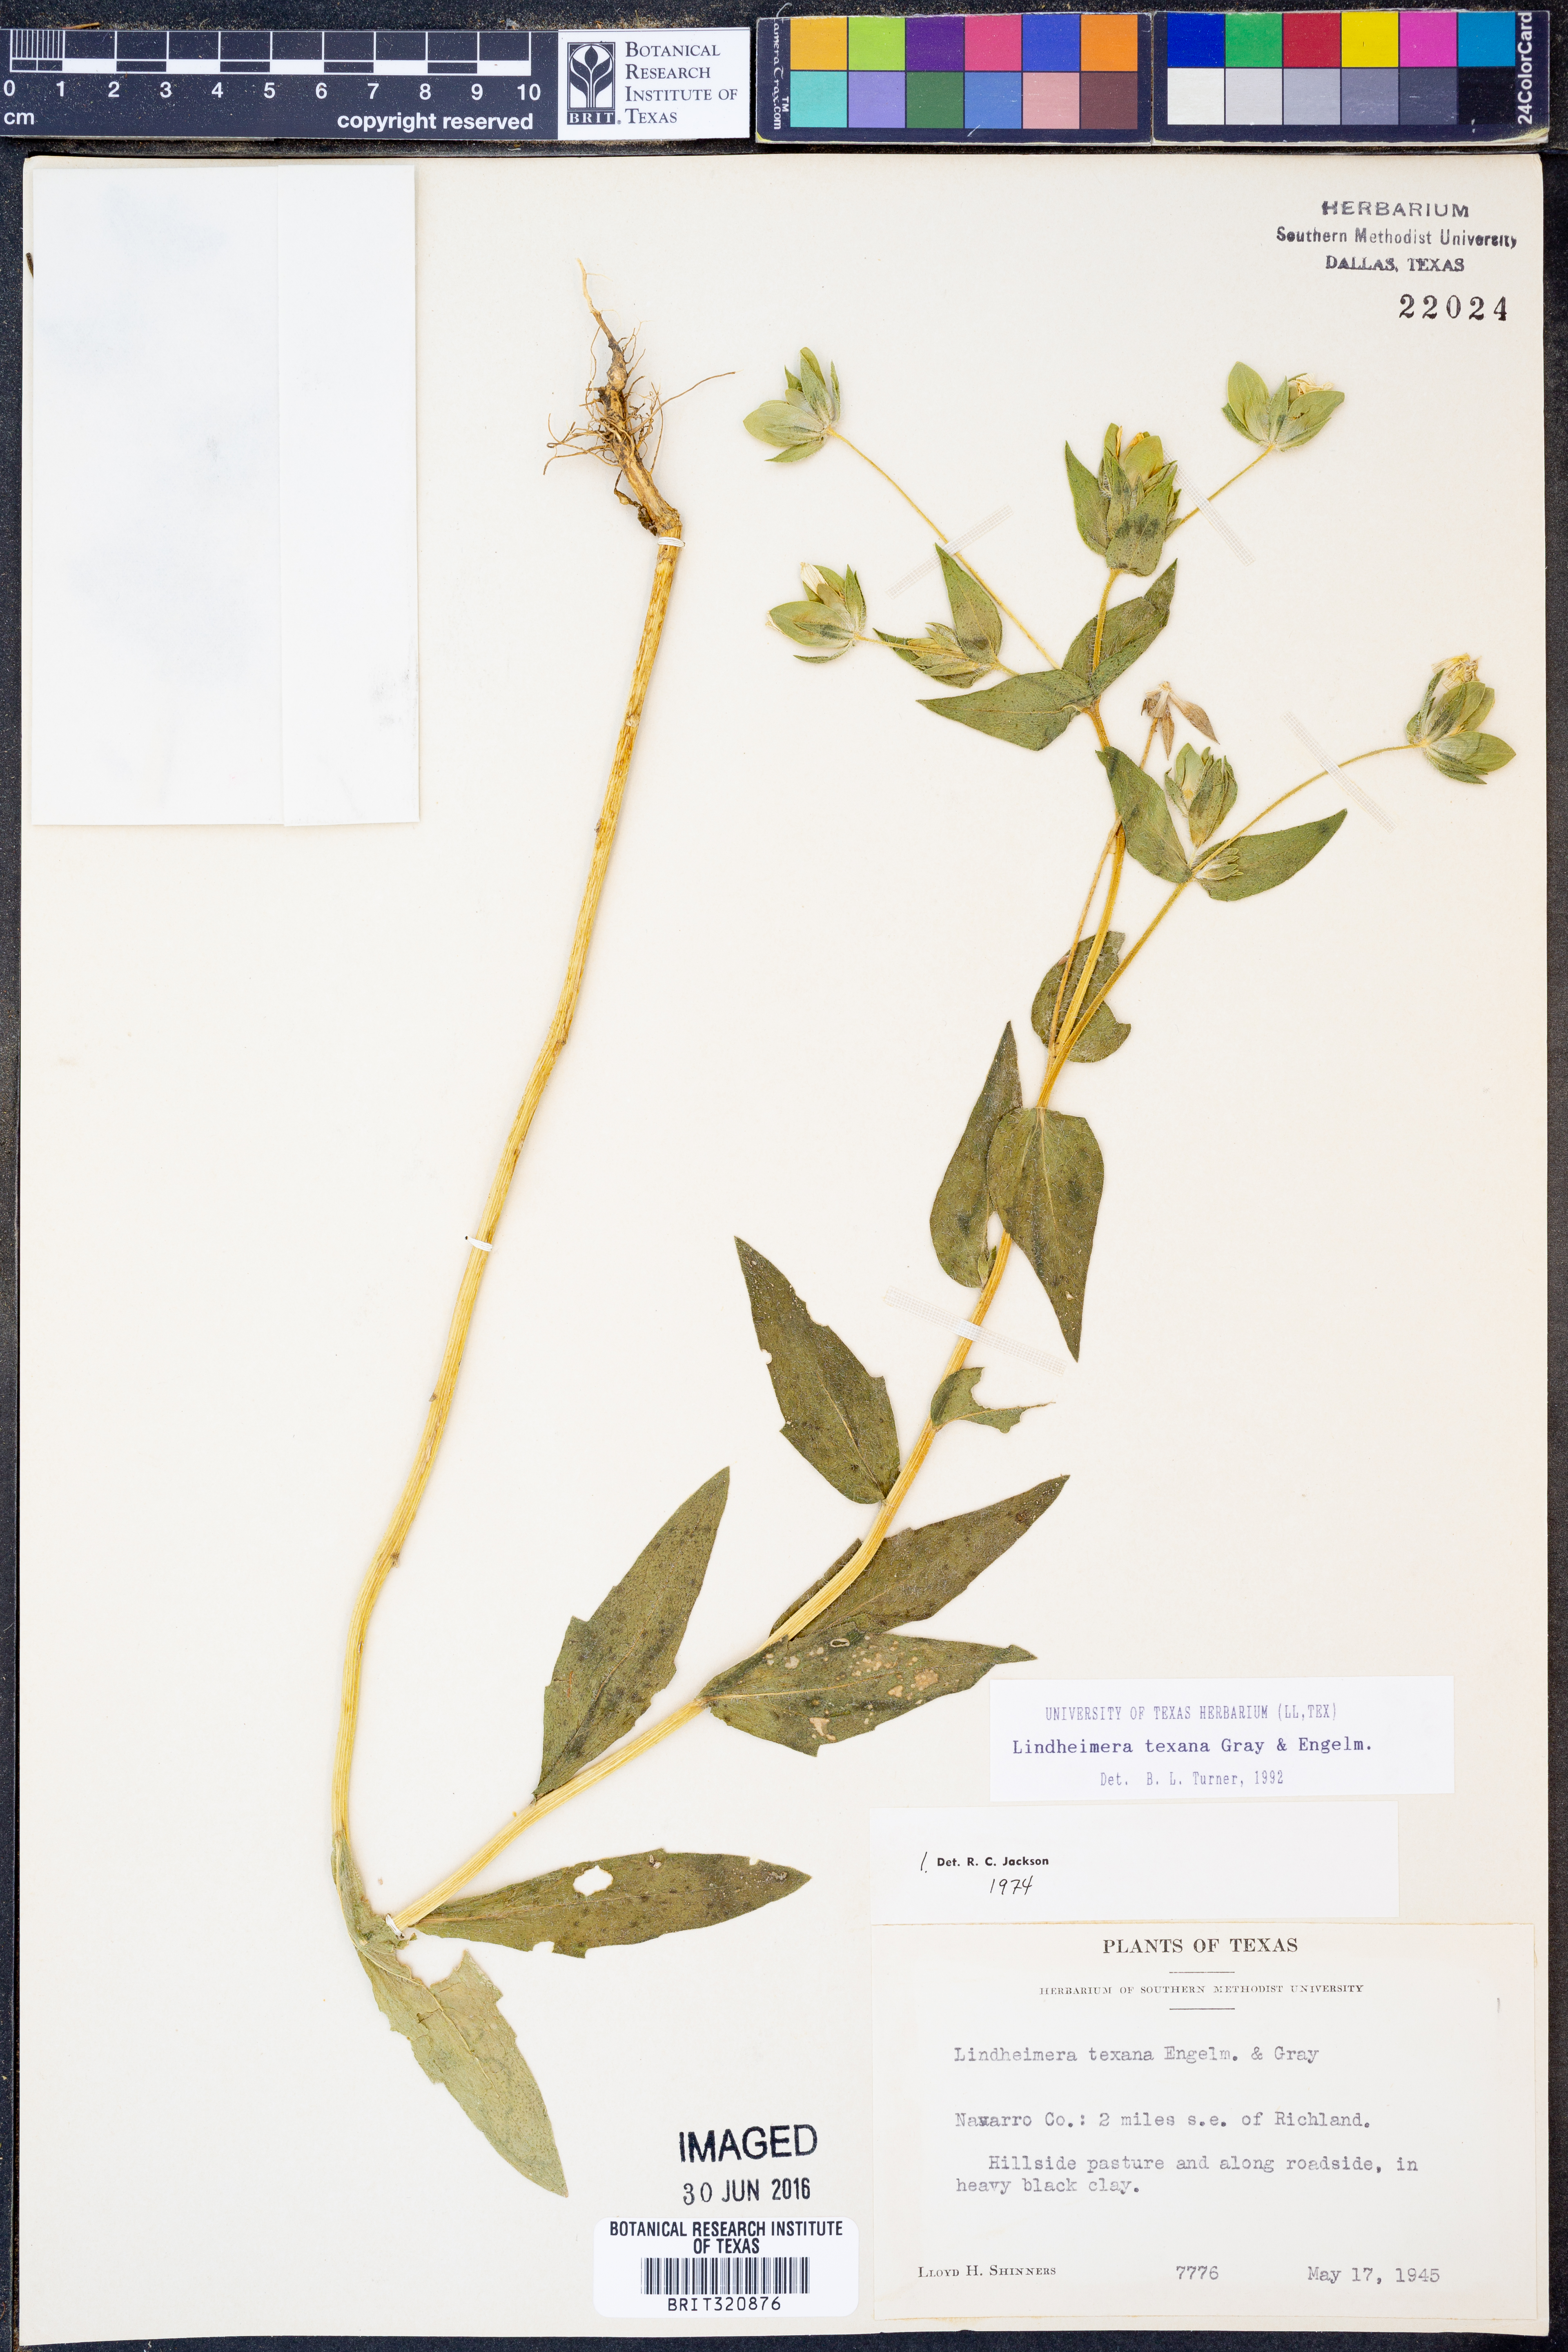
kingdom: Plantae
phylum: Tracheophyta
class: Magnoliopsida
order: Asterales
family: Asteraceae
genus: Lindheimera
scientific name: Lindheimera texana
